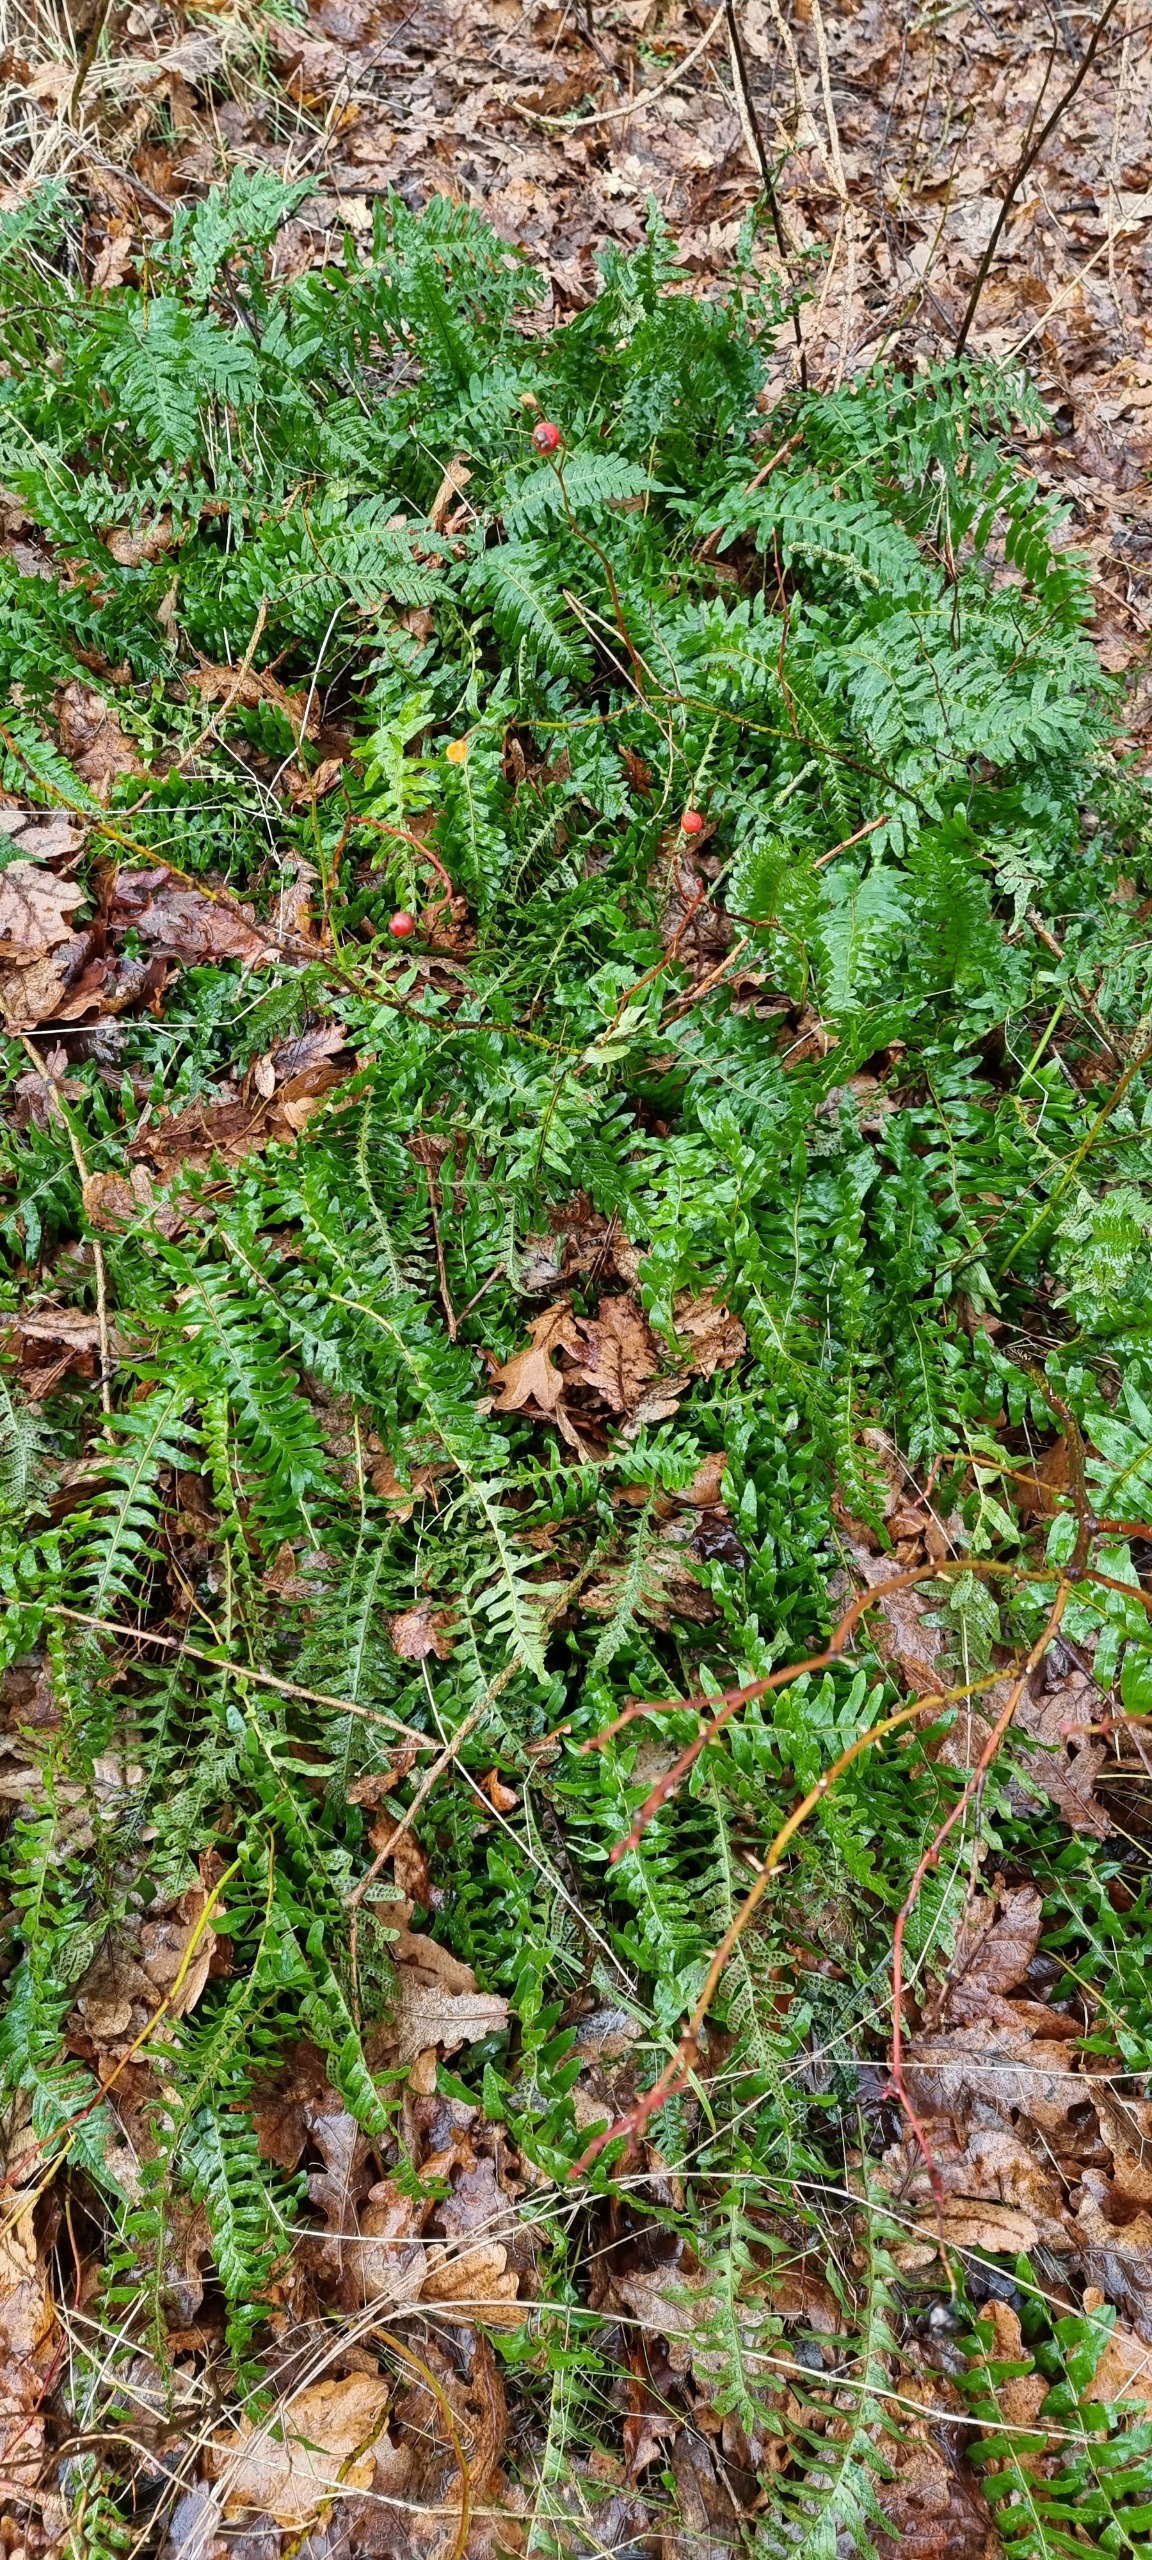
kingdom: Plantae
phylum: Tracheophyta
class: Polypodiopsida
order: Polypodiales
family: Polypodiaceae
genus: Polypodium
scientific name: Polypodium vulgare
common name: Almindelig engelsød
